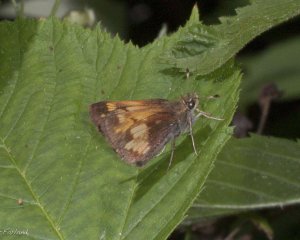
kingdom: Animalia
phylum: Arthropoda
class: Insecta
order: Lepidoptera
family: Hesperiidae
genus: Lon
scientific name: Lon hobomok
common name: Hobomok Skipper
